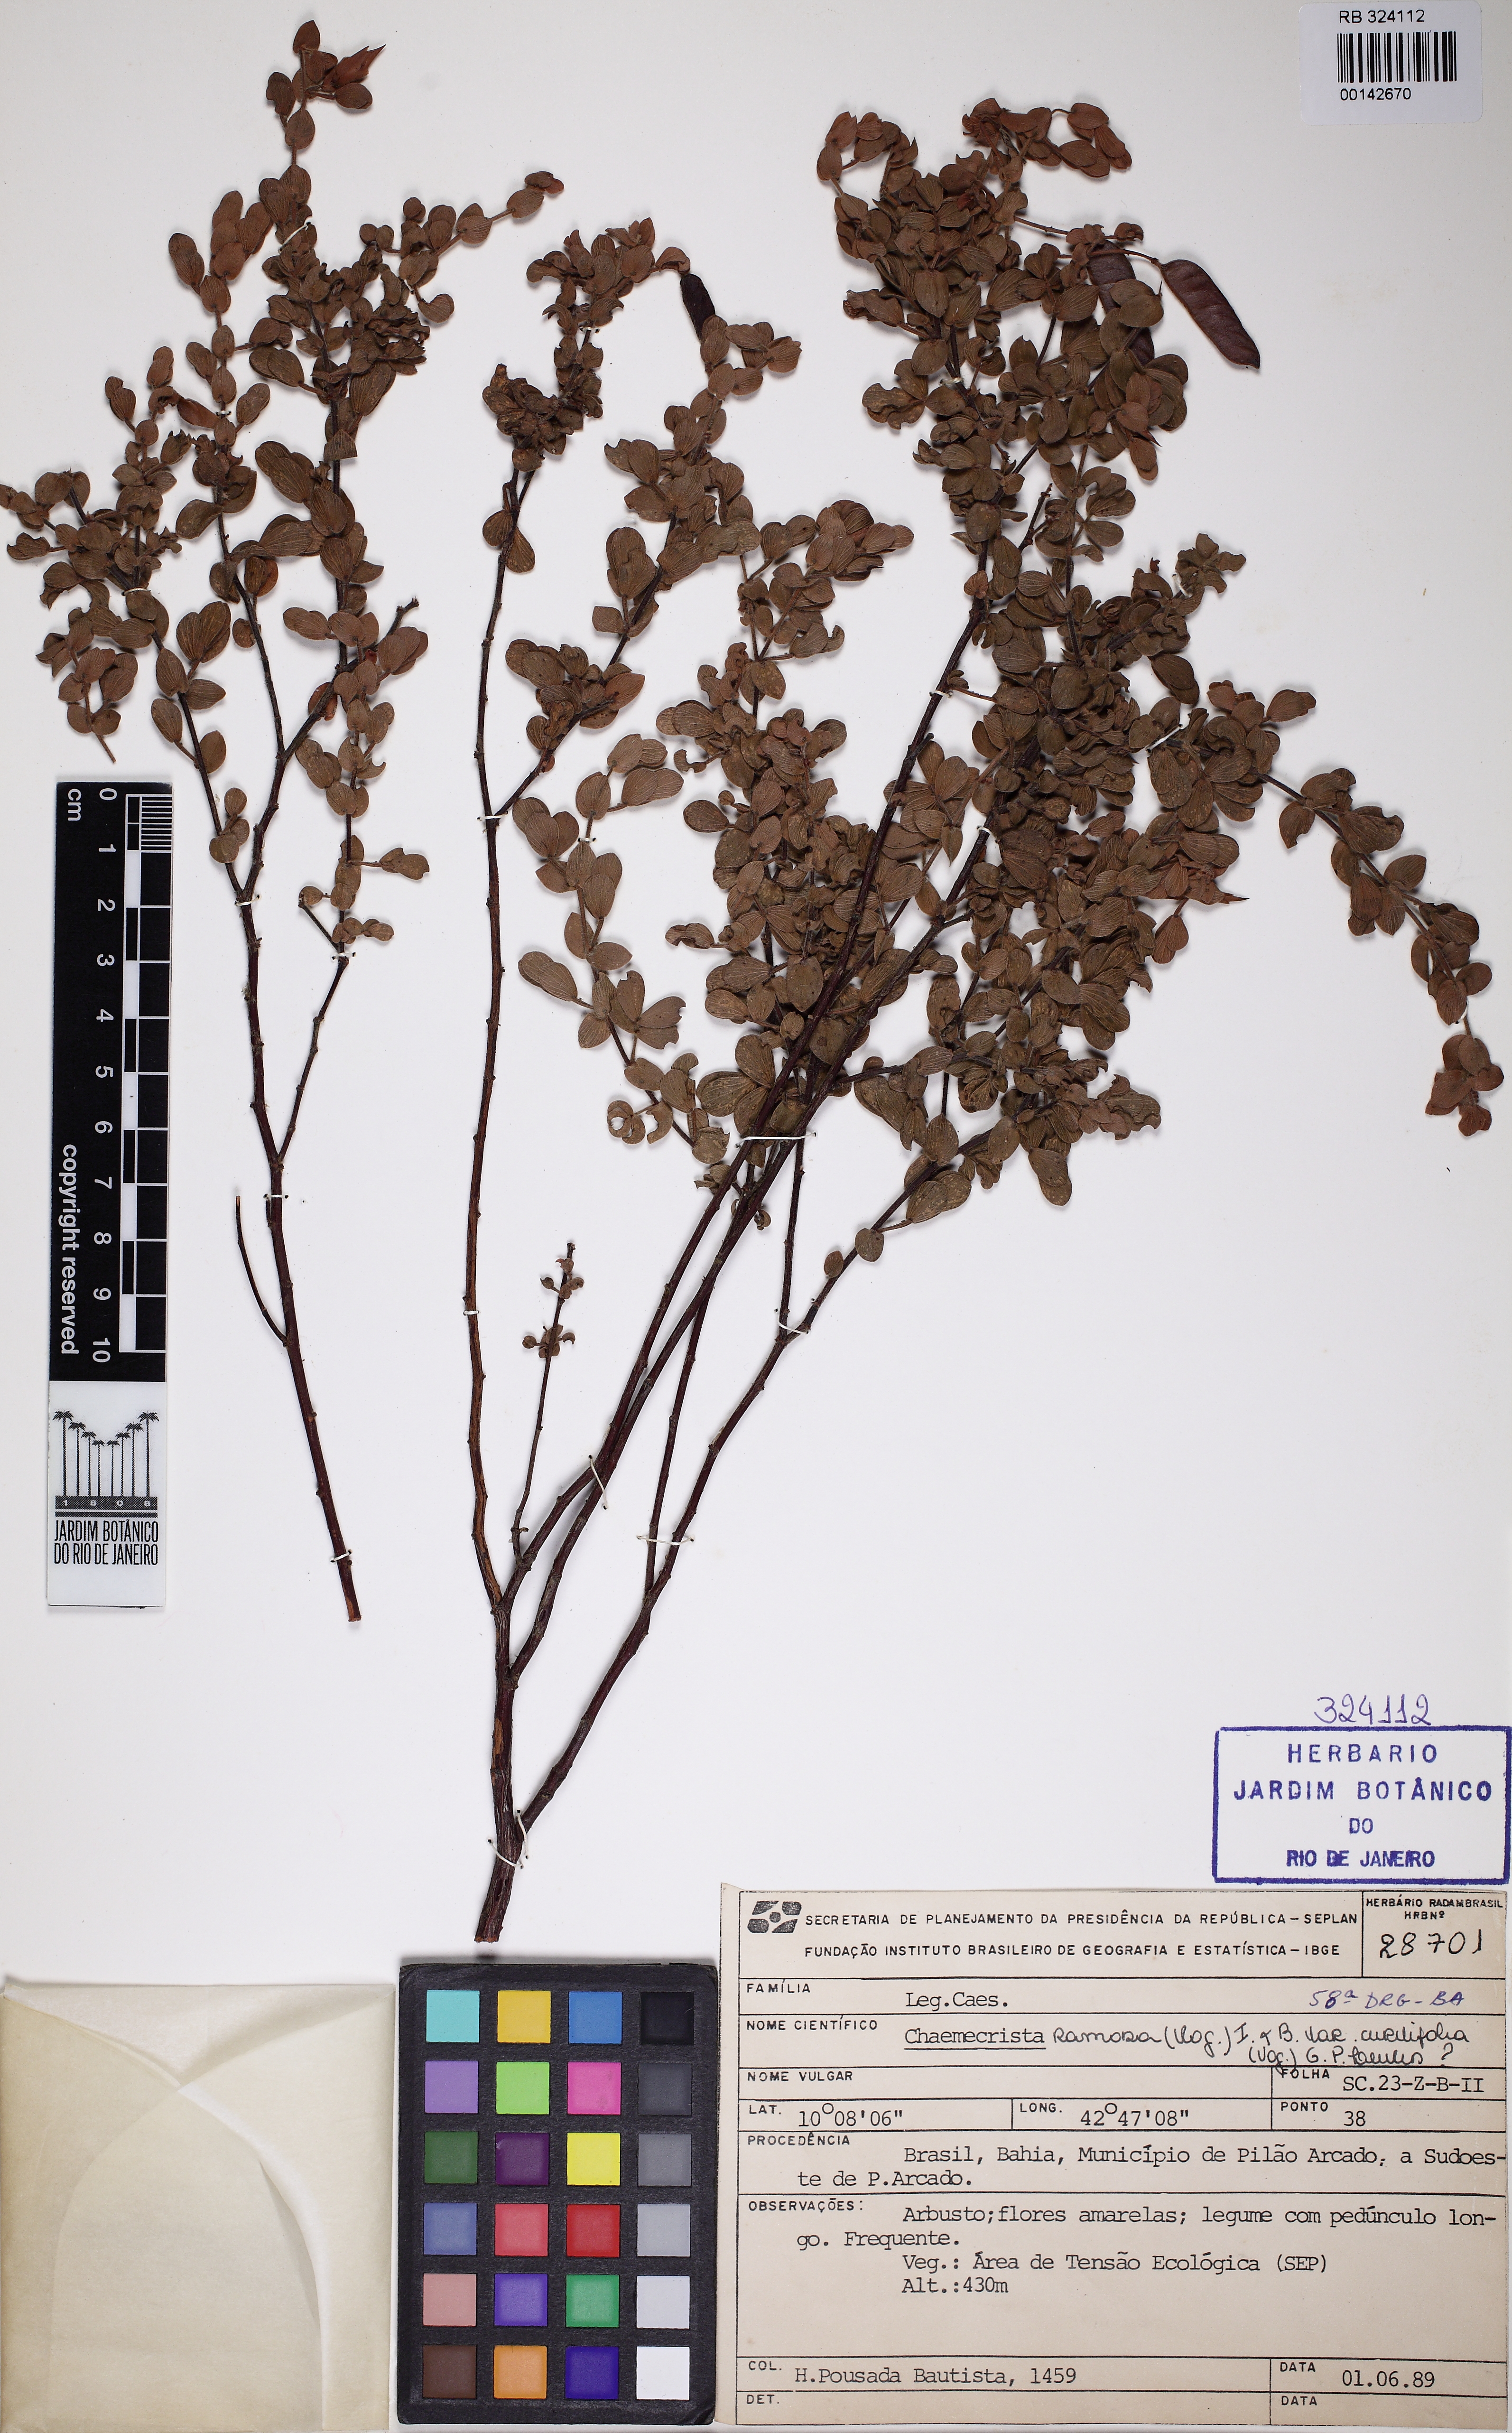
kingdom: Plantae
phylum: Tracheophyta
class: Magnoliopsida
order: Fabales
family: Fabaceae
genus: Chamaecrista
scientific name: Chamaecrista arachiphylla
